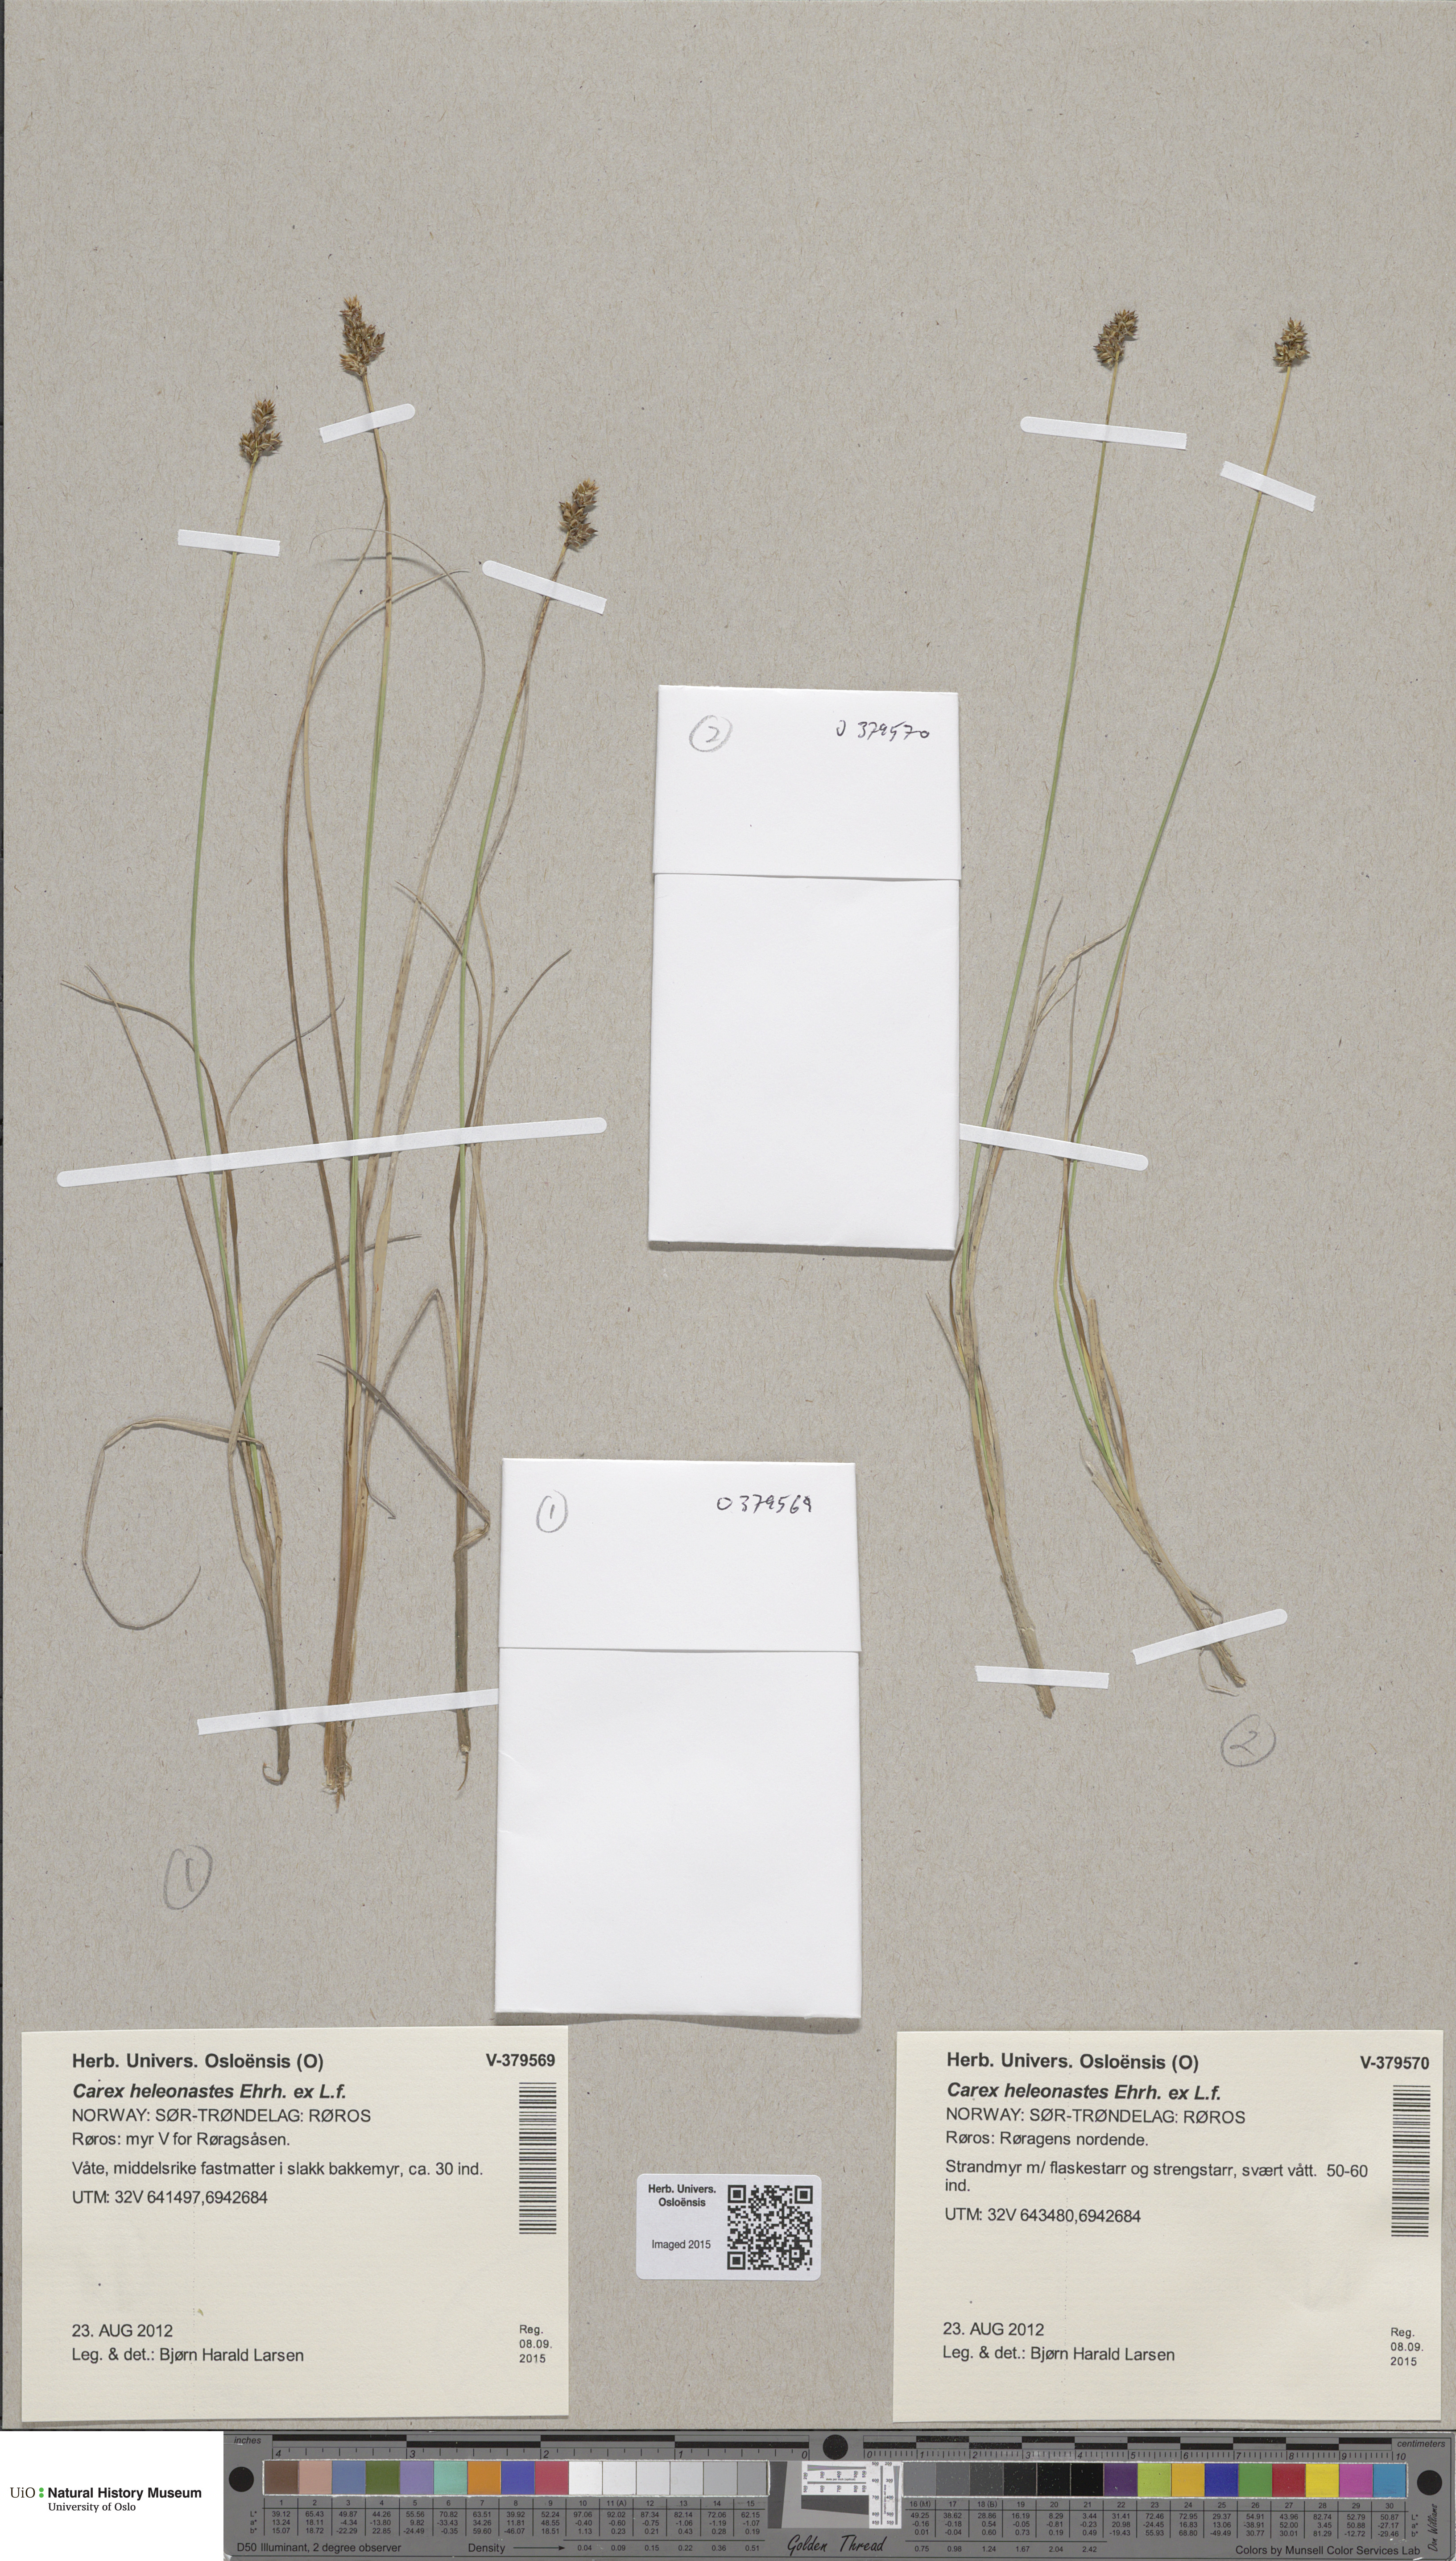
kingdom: Plantae
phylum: Tracheophyta
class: Liliopsida
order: Poales
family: Cyperaceae
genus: Carex
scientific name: Carex heleonastes
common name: Hudson bay sedge
